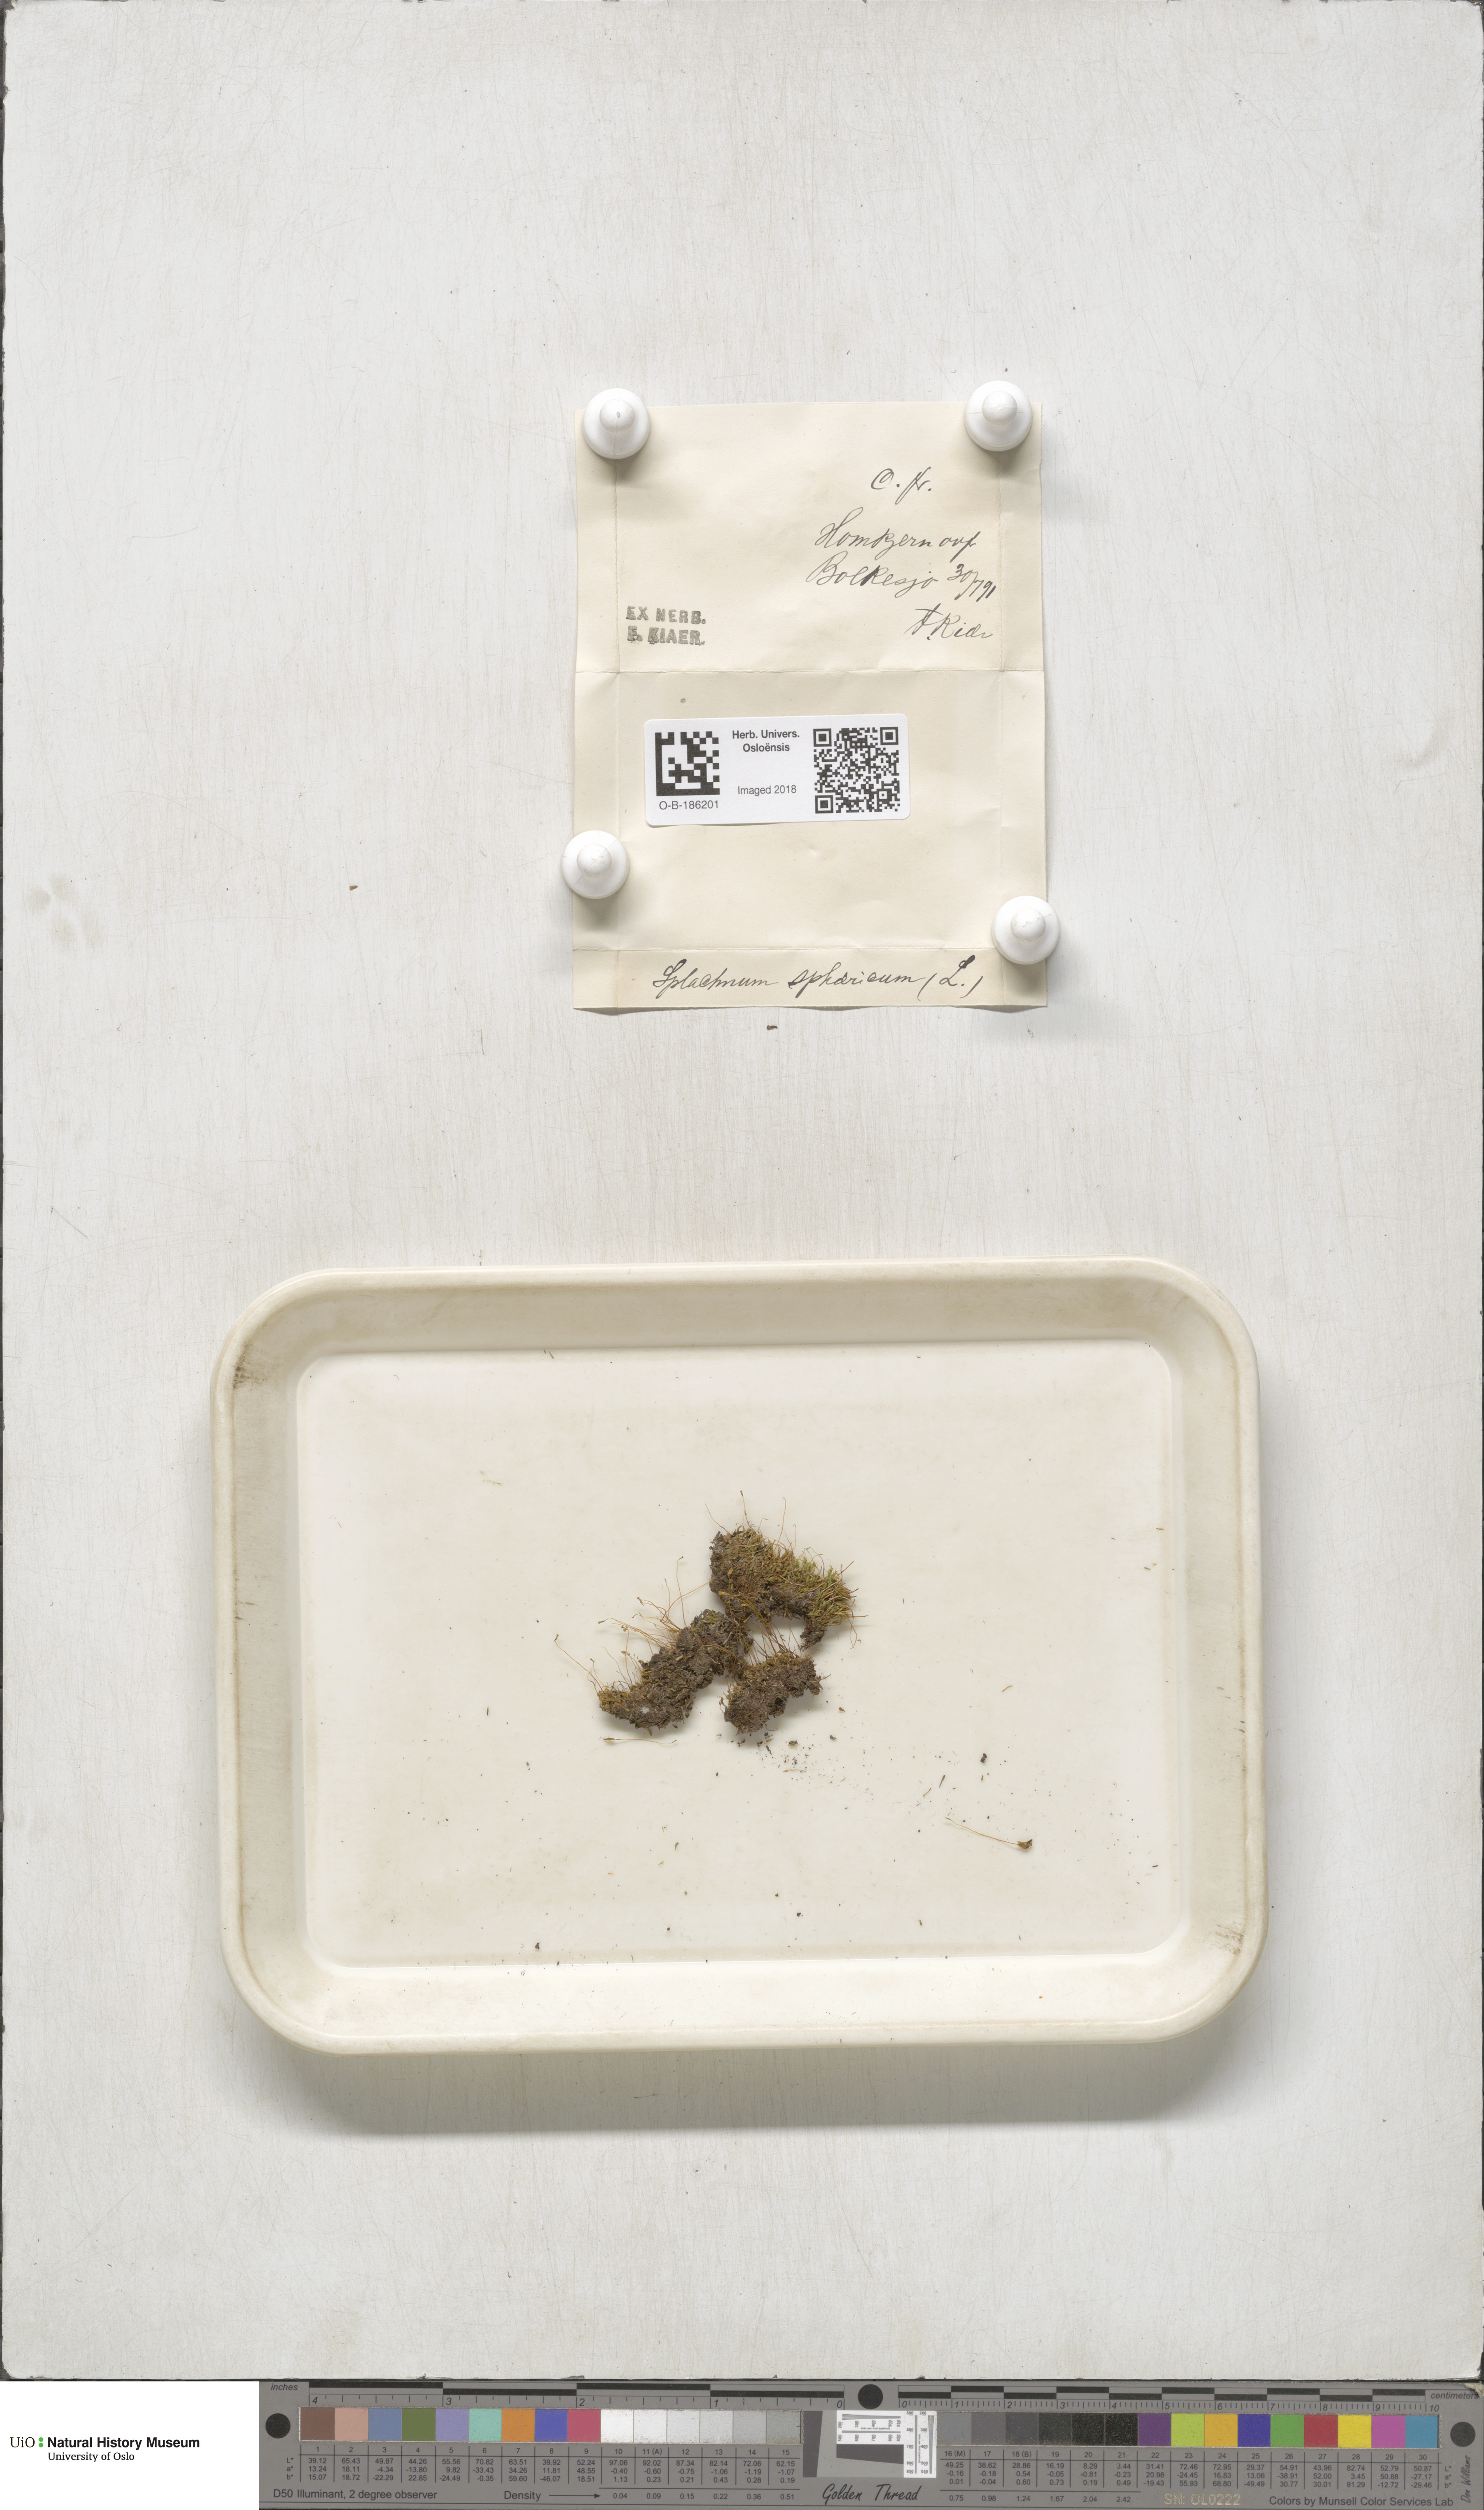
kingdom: Plantae
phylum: Bryophyta
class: Bryopsida
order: Splachnales
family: Splachnaceae
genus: Splachnum
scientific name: Splachnum sphaericum
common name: Round-fruited dung moss
